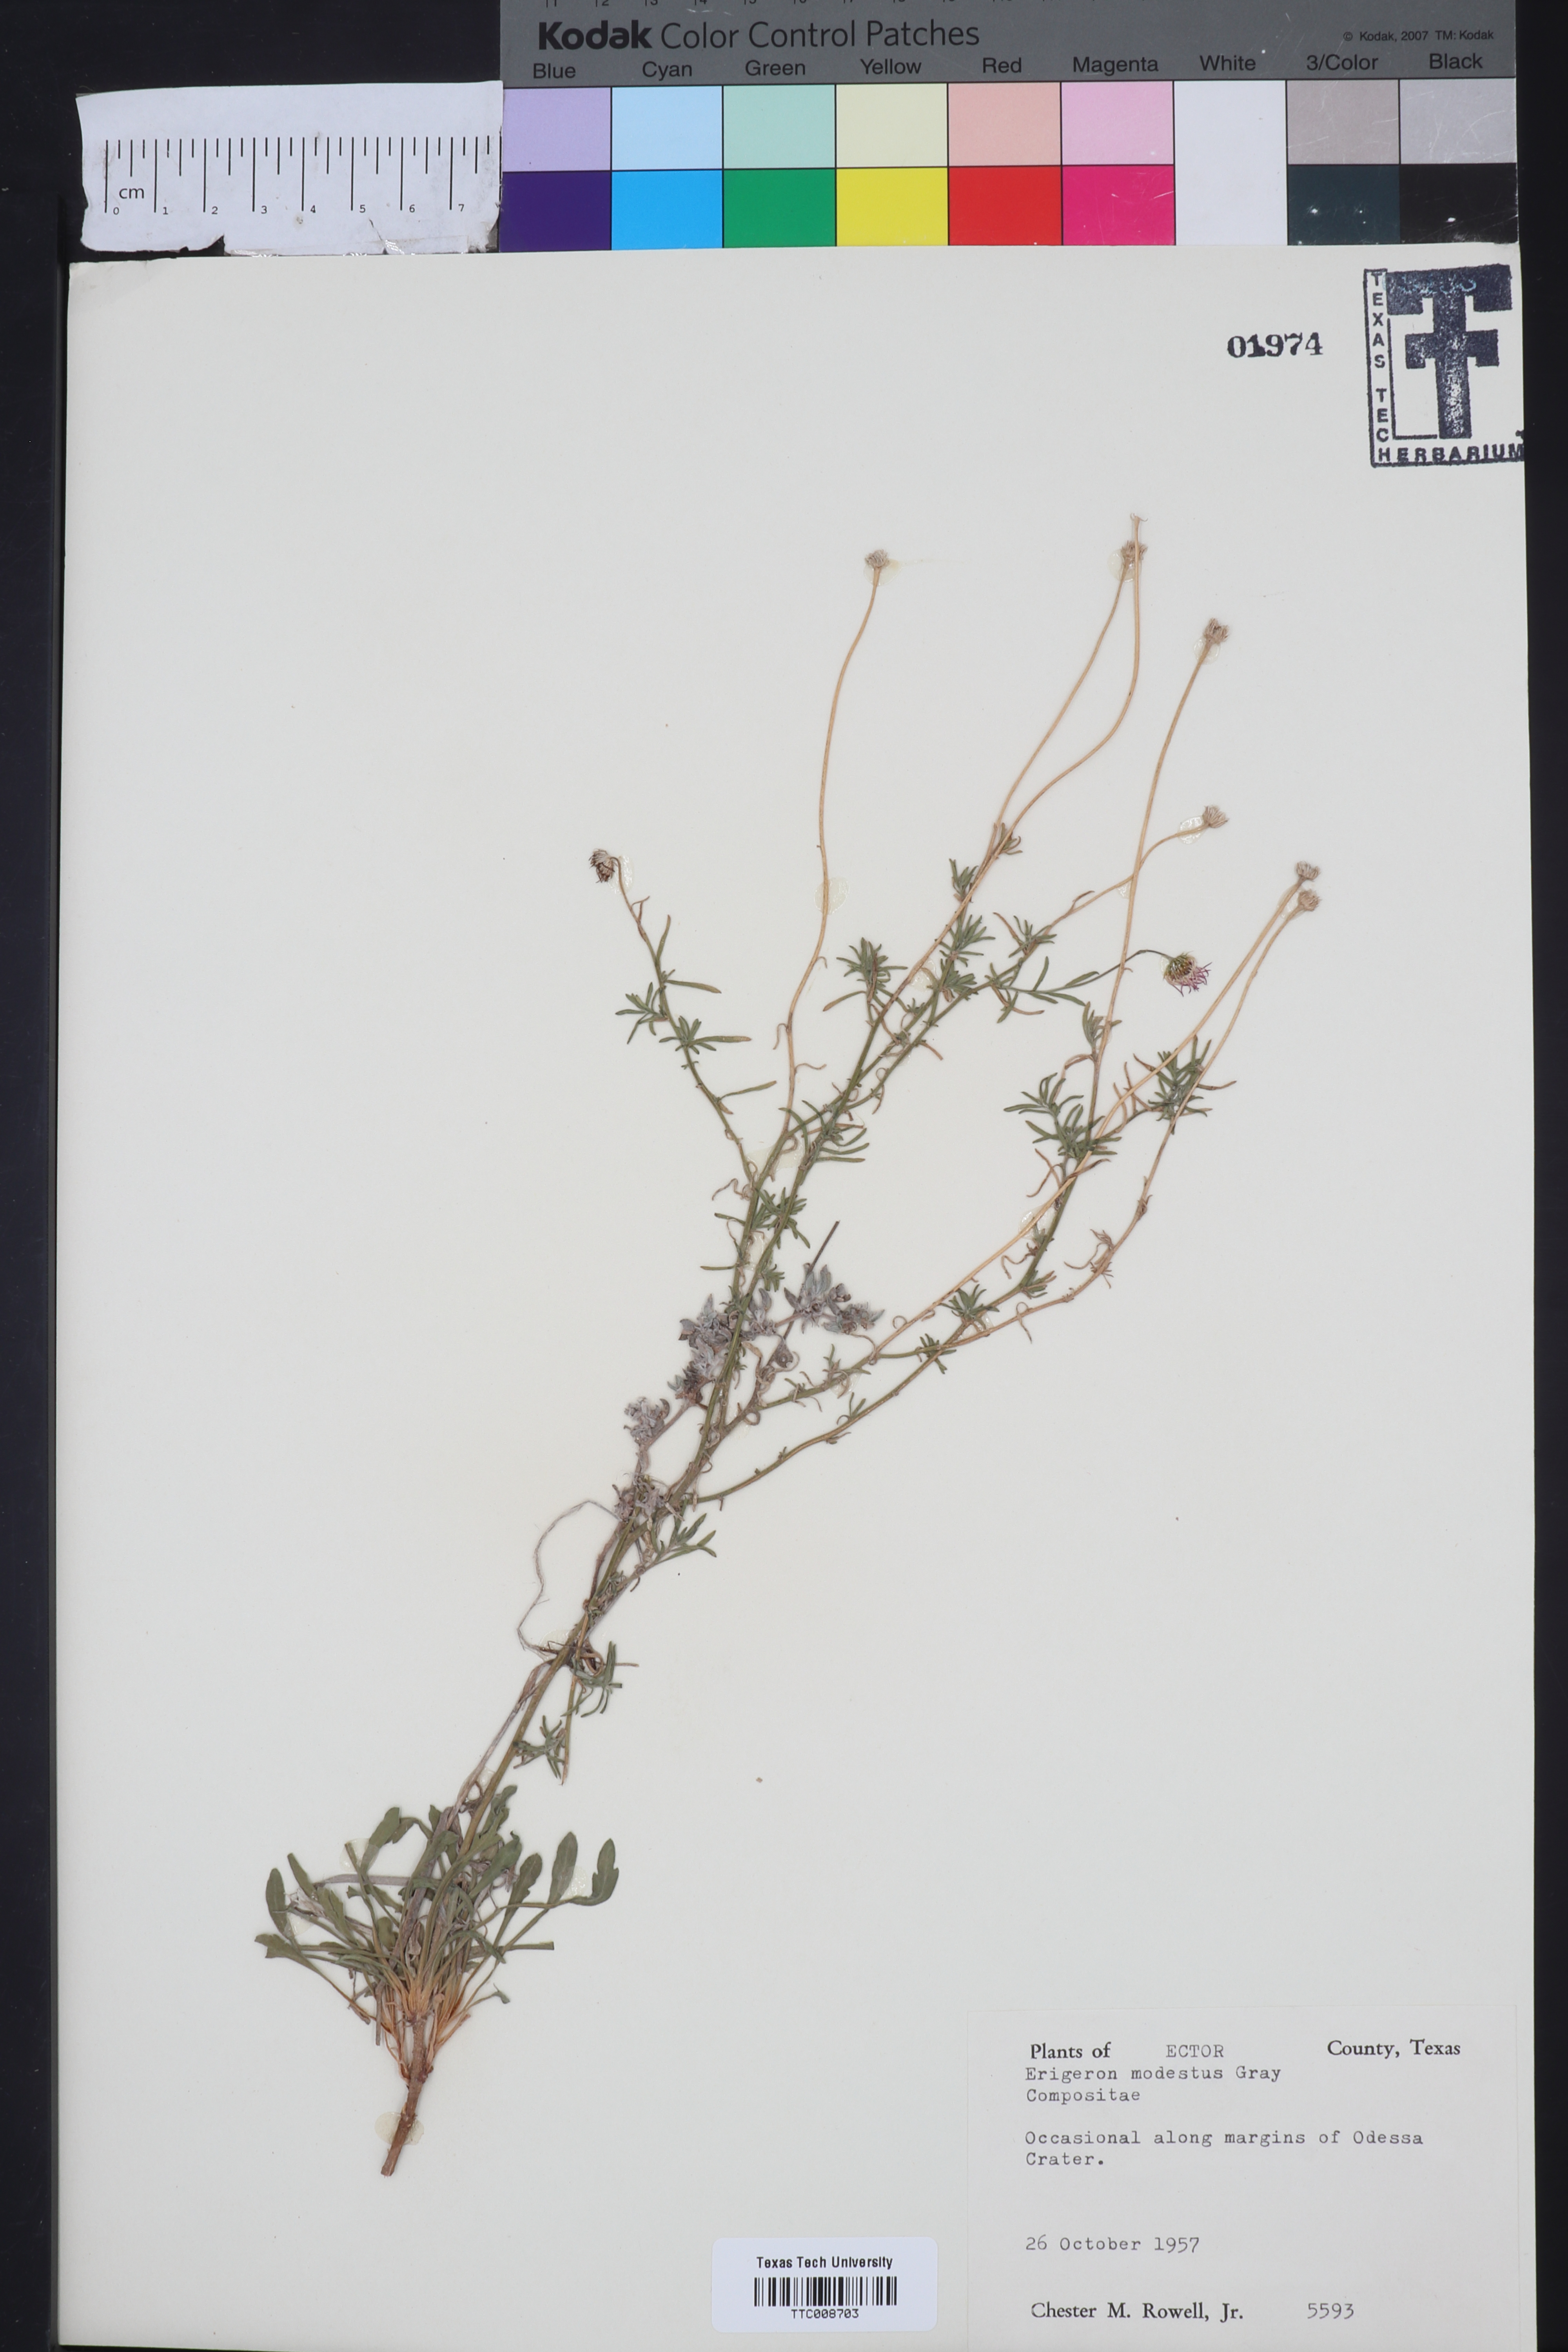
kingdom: Plantae
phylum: Tracheophyta
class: Magnoliopsida
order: Asterales
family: Asteraceae
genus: Erigeron
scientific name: Erigeron modestus
